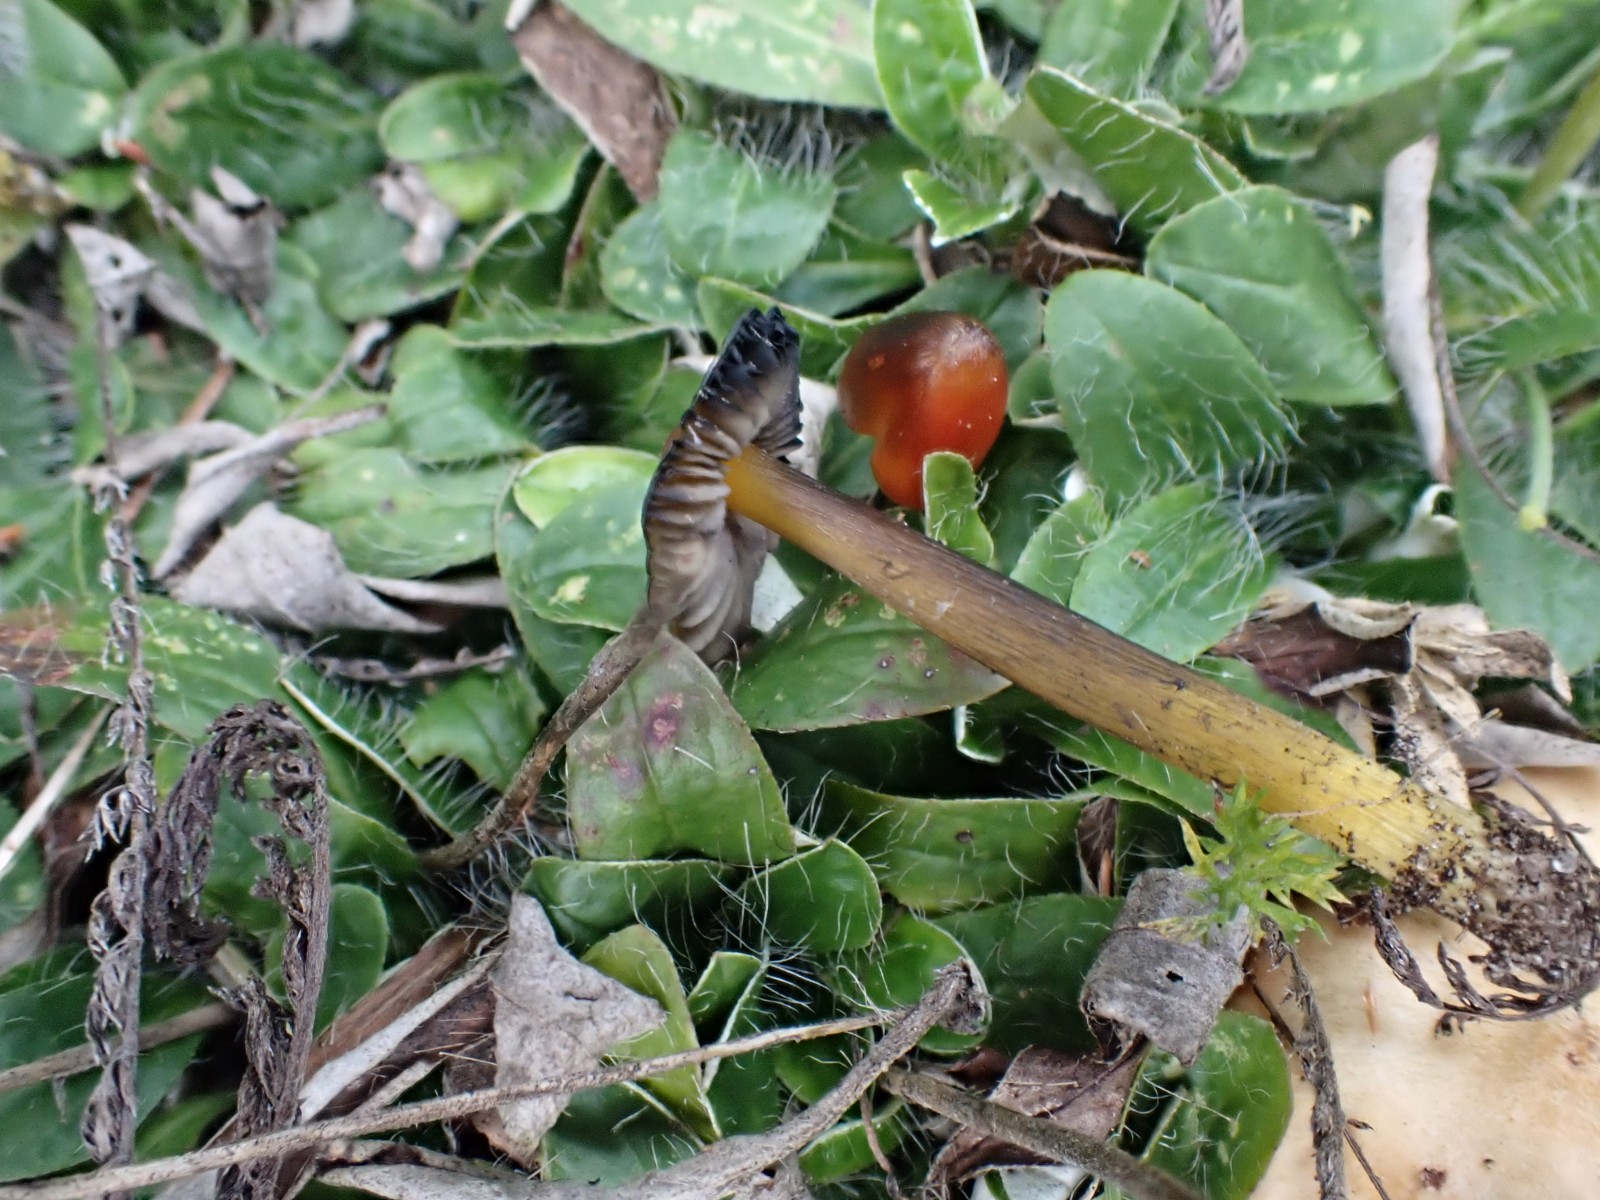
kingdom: Fungi
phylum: Basidiomycota
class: Agaricomycetes
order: Agaricales
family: Hygrophoraceae
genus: Hygrocybe
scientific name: Hygrocybe conica
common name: kegle-vokshat
